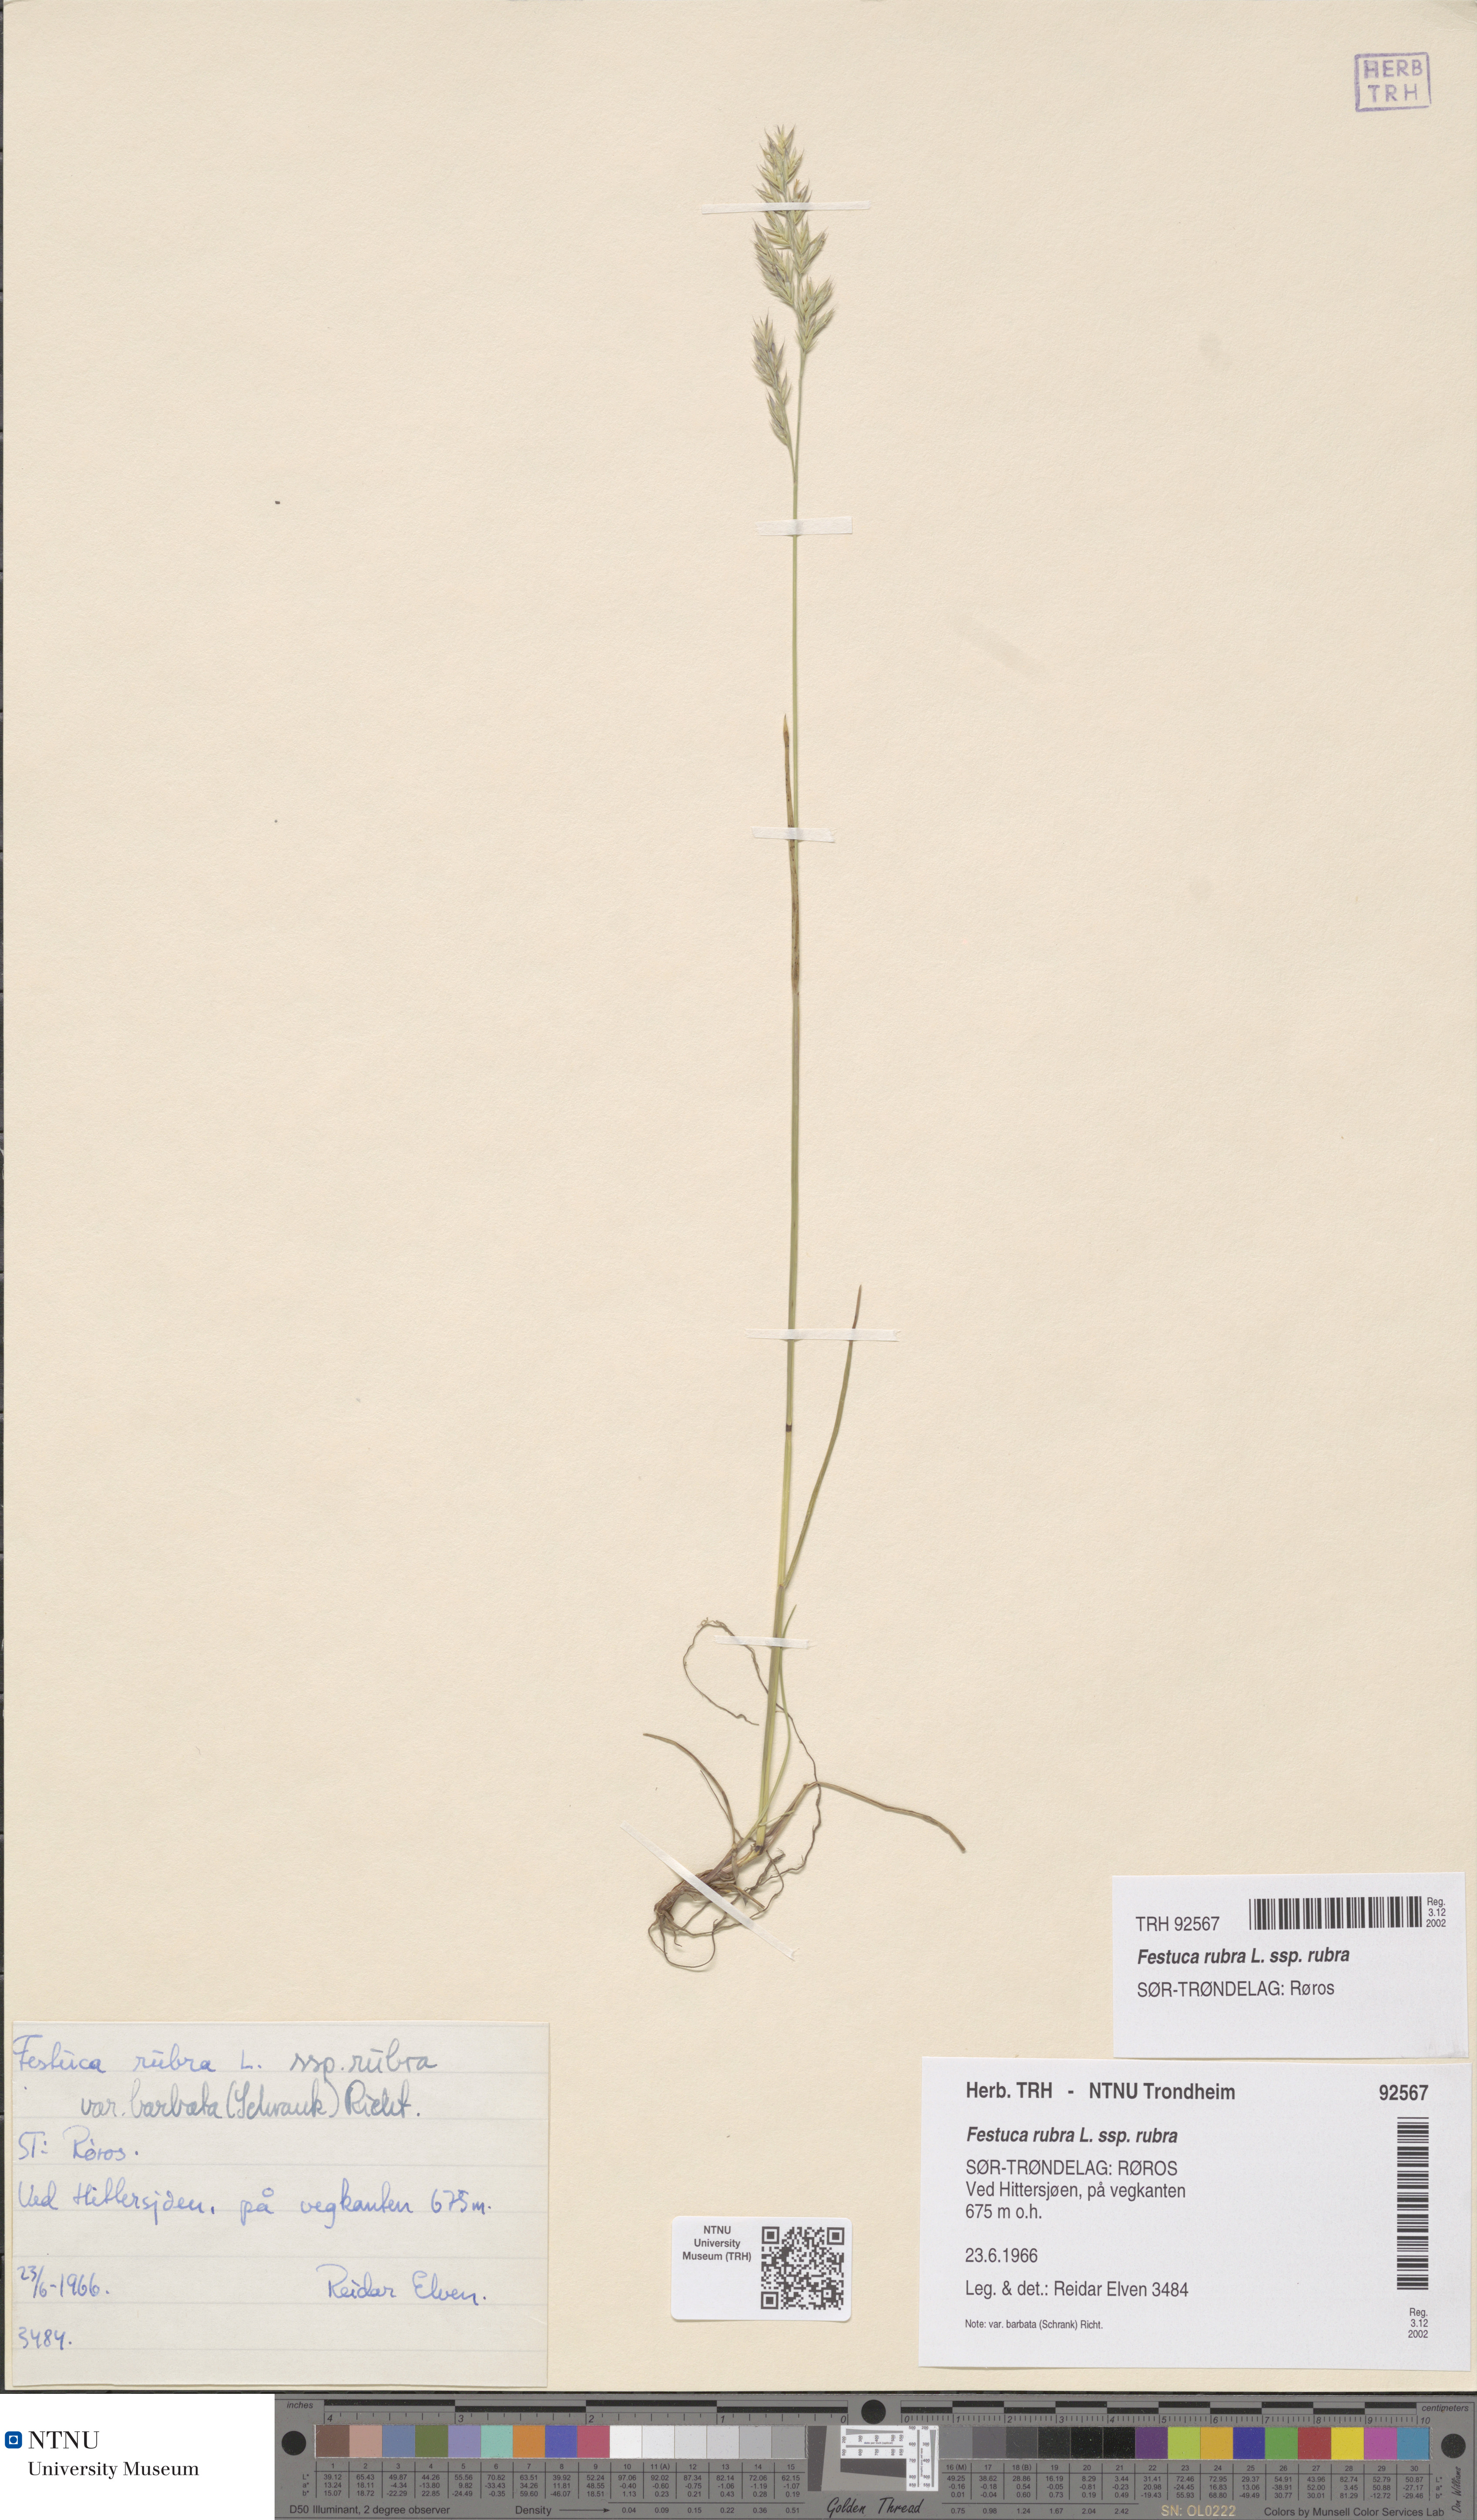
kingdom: Plantae
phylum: Tracheophyta
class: Liliopsida
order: Poales
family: Poaceae
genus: Festuca
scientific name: Festuca rubra
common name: Red fescue
